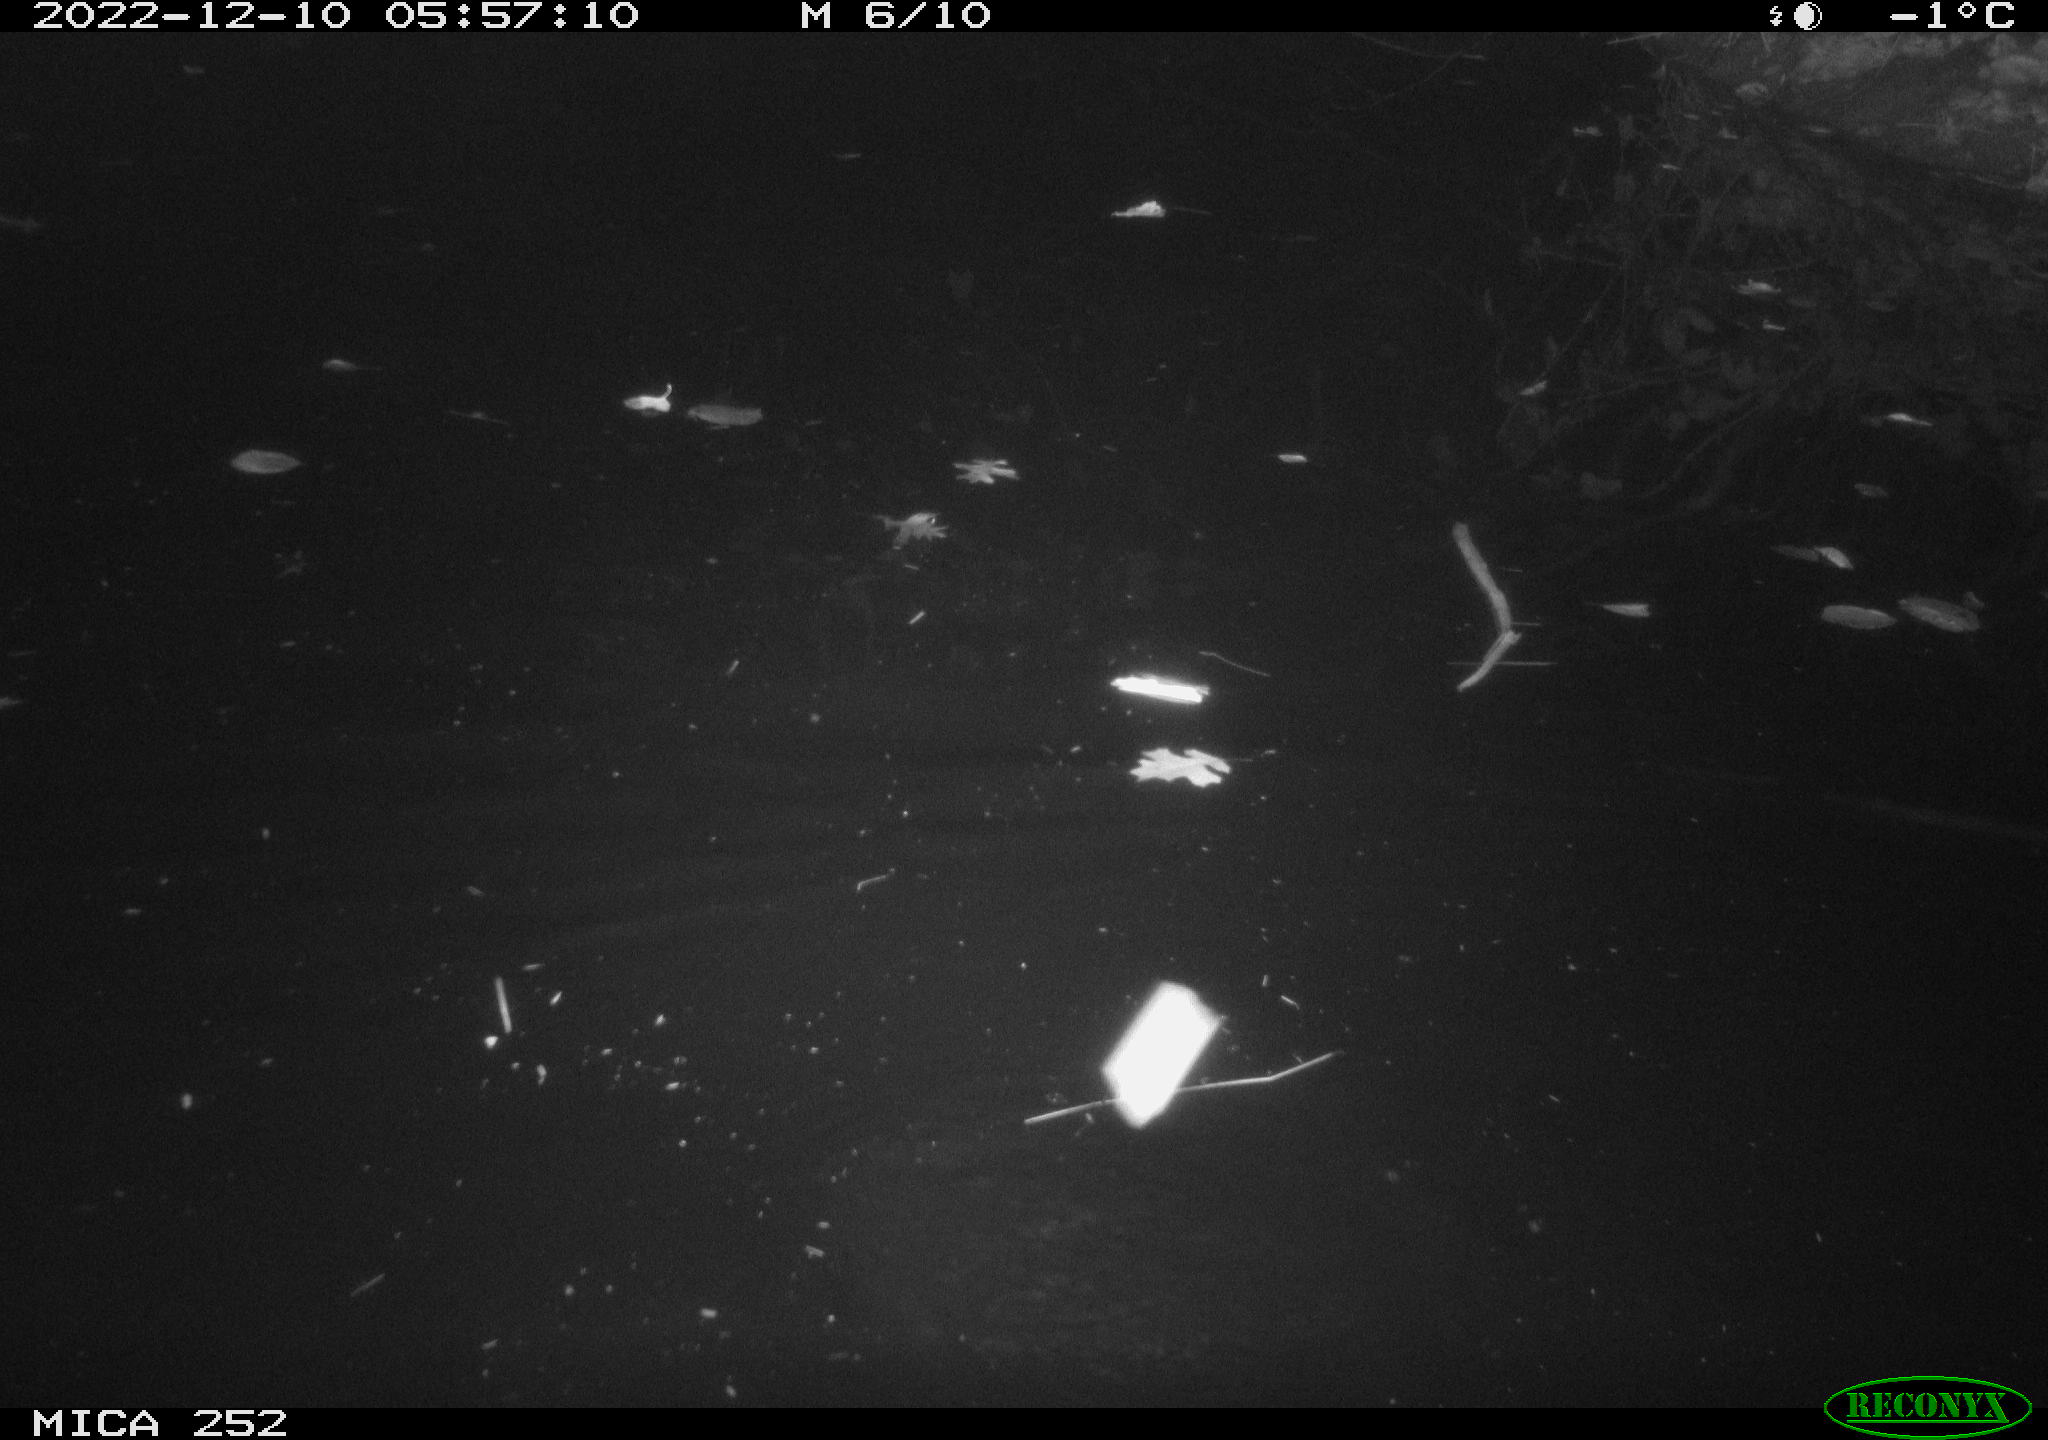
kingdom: Animalia
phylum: Chordata
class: Mammalia
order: Rodentia
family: Castoridae
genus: Castor
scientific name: Castor fiber
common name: Eurasian beaver
